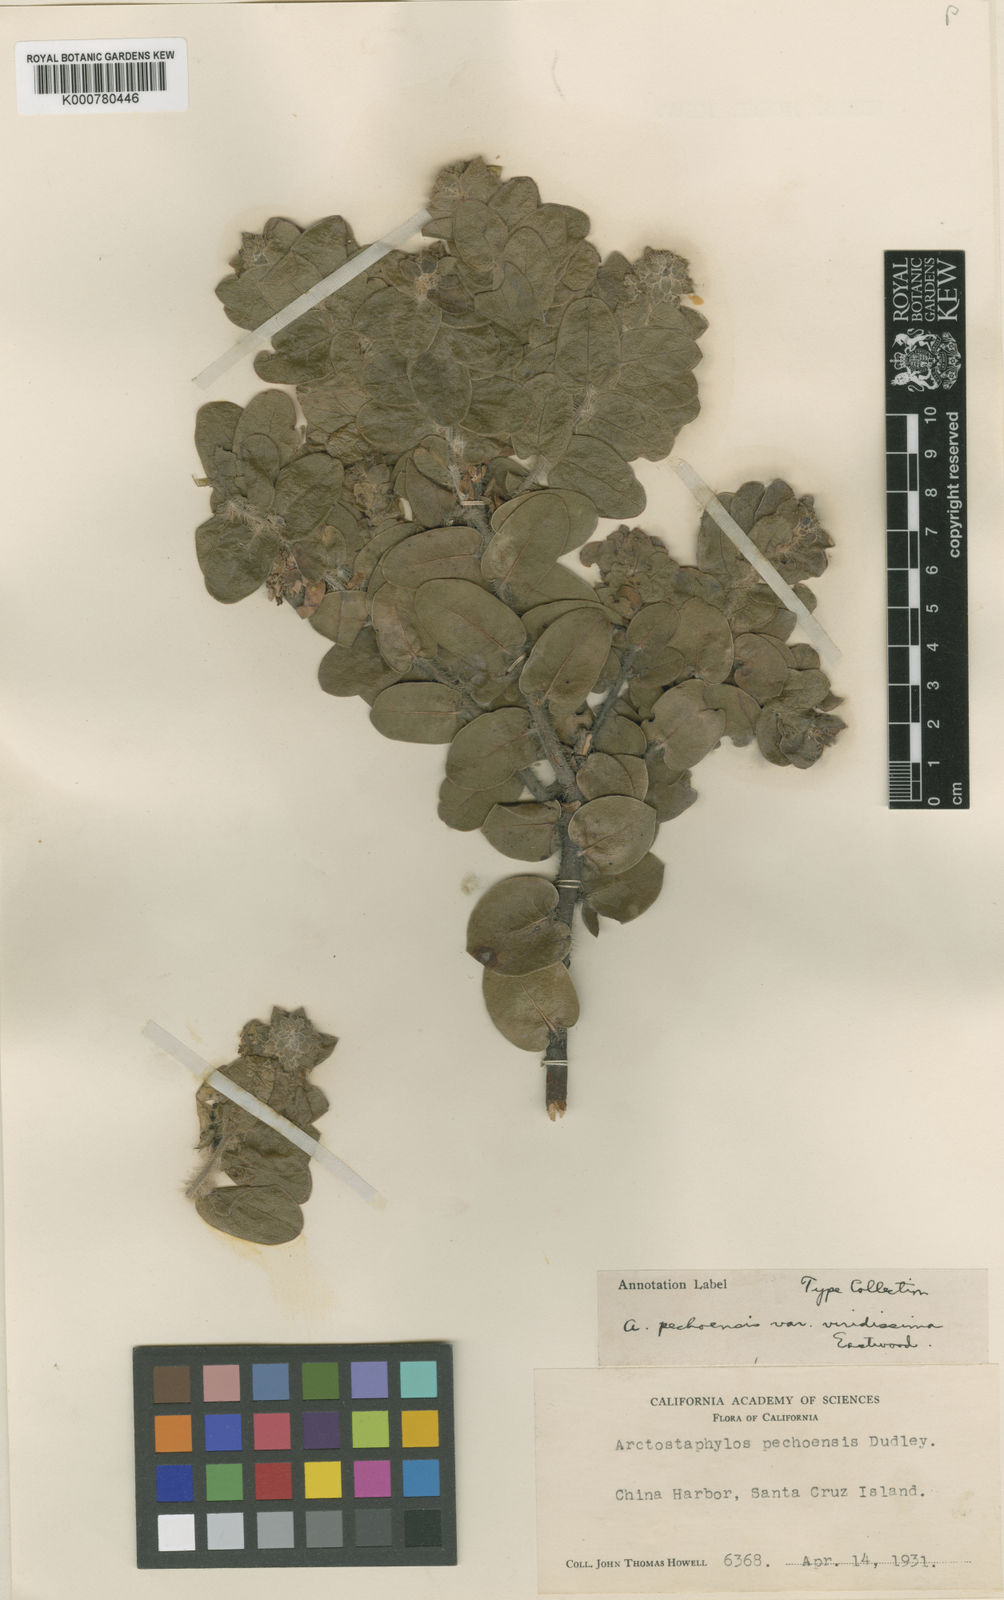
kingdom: Plantae
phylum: Tracheophyta
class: Magnoliopsida
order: Ericales
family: Ericaceae
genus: Arctostaphylos
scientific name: Arctostaphylos pechoensis
